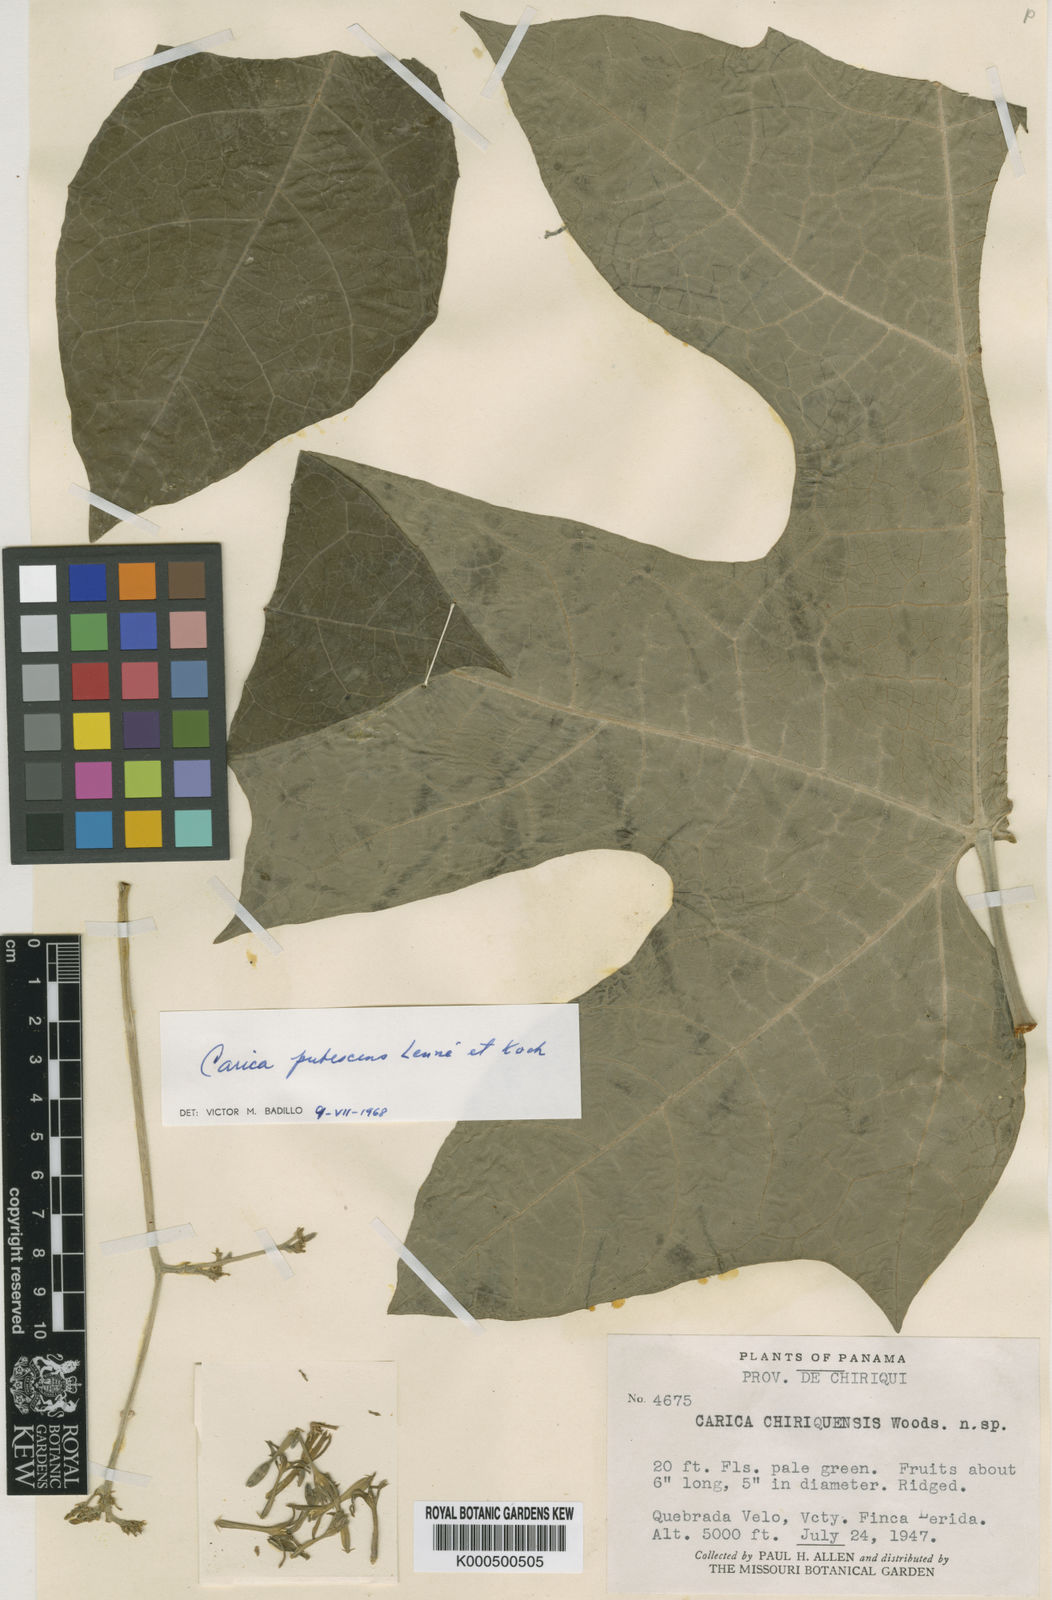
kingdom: Plantae
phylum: Tracheophyta
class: Magnoliopsida
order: Brassicales
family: Caricaceae
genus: Vasconcellea
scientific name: Vasconcellea pubescens
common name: Mountain papaya
